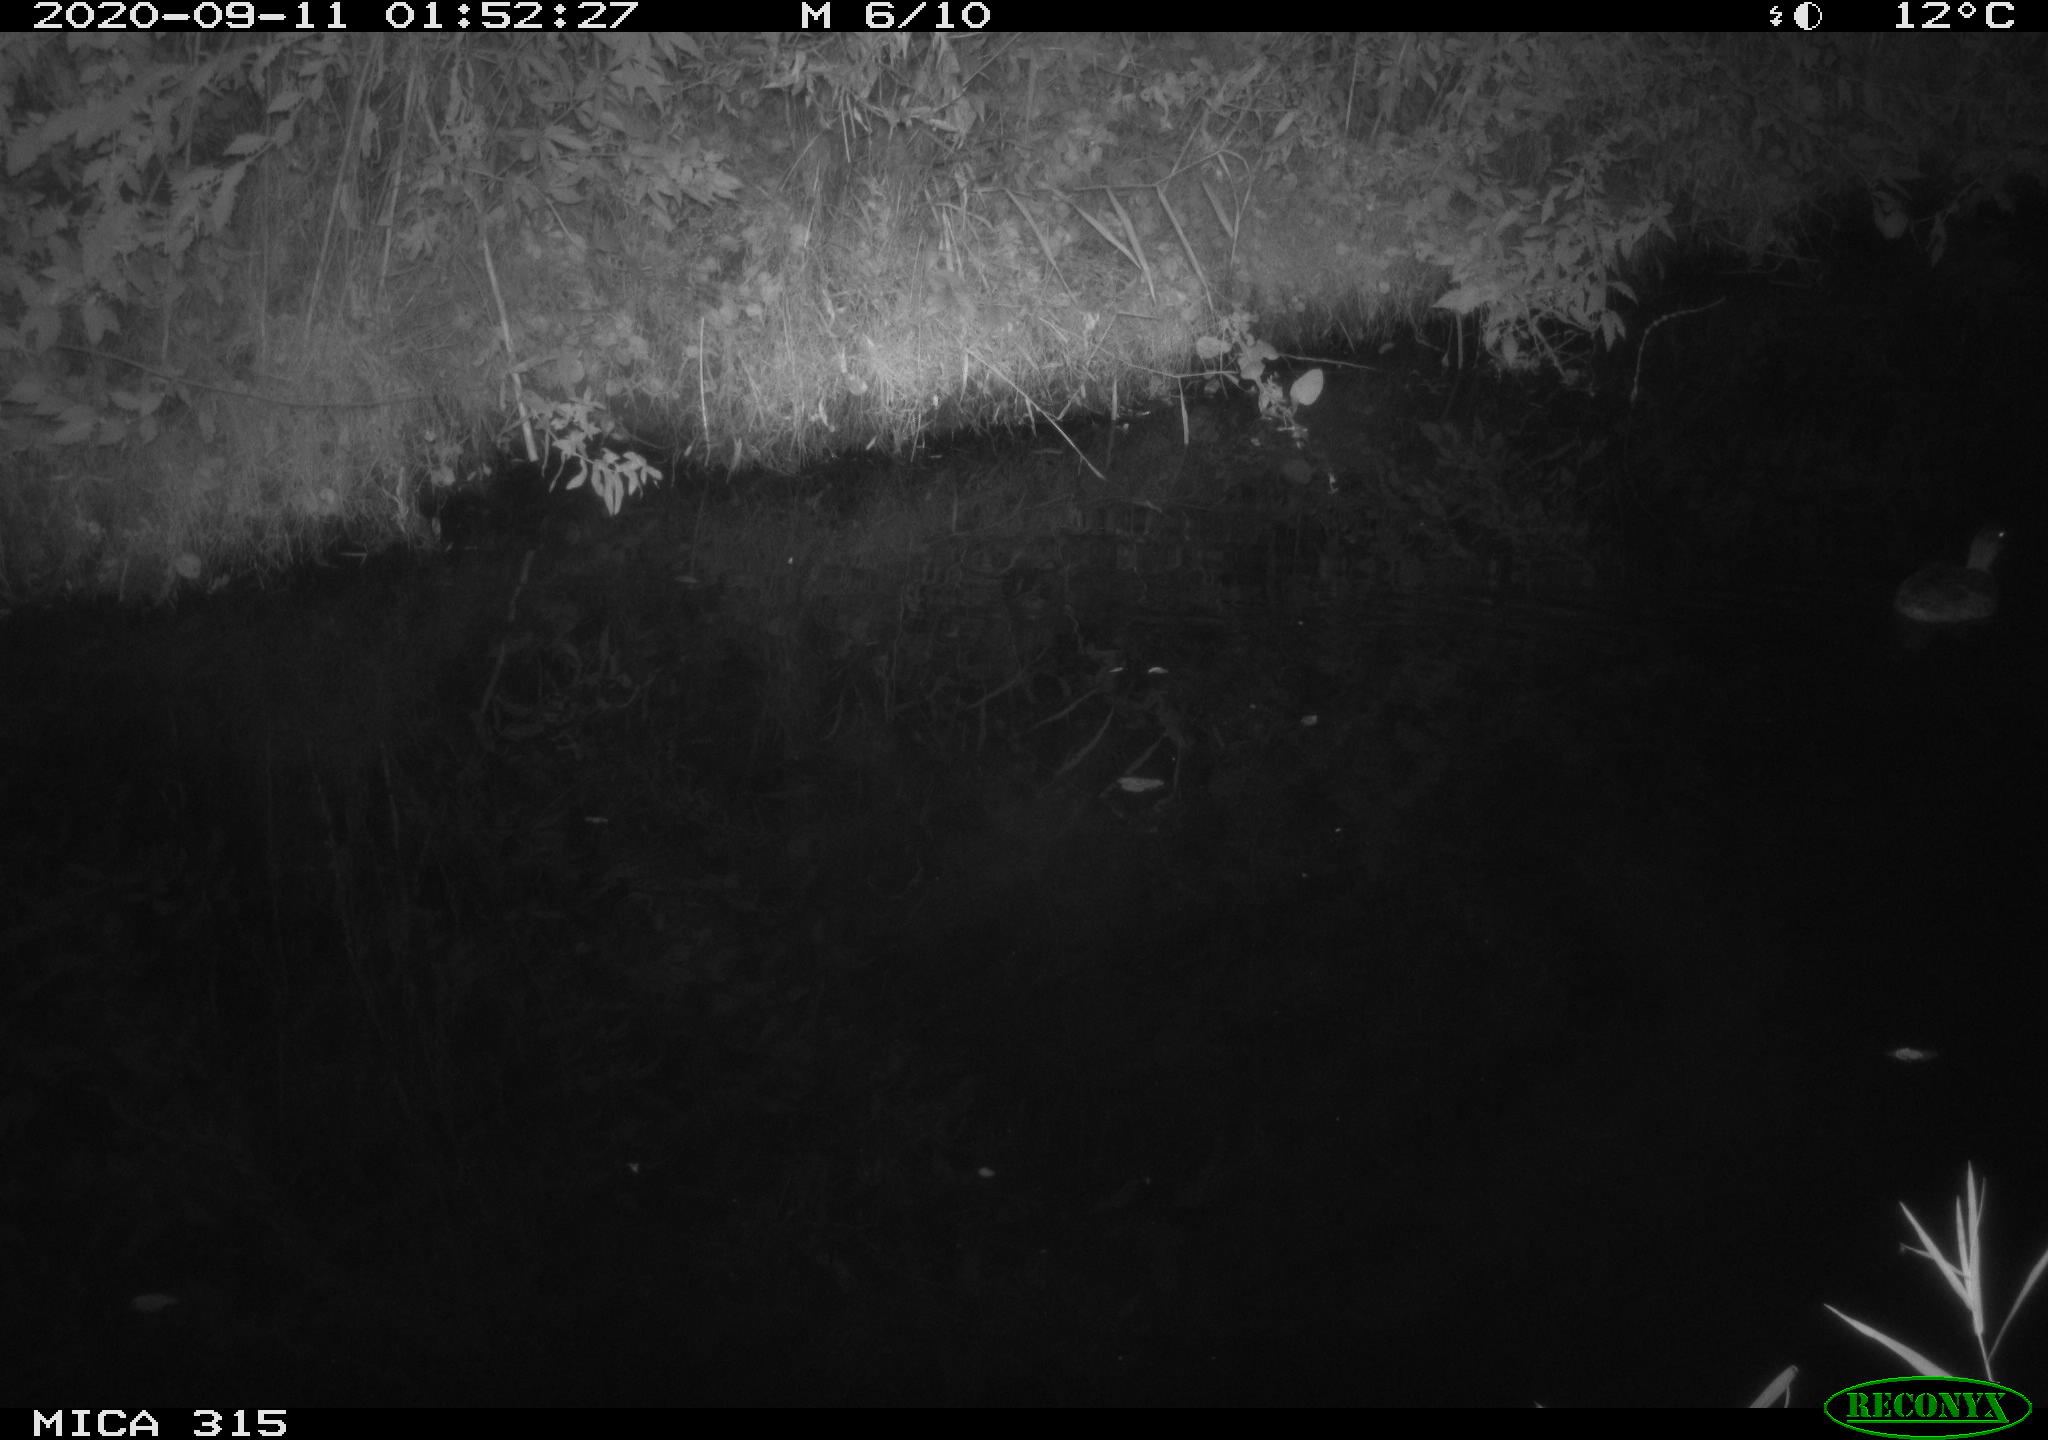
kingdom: Animalia
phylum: Chordata
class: Aves
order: Anseriformes
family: Anatidae
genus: Anas
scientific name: Anas platyrhynchos
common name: Mallard
